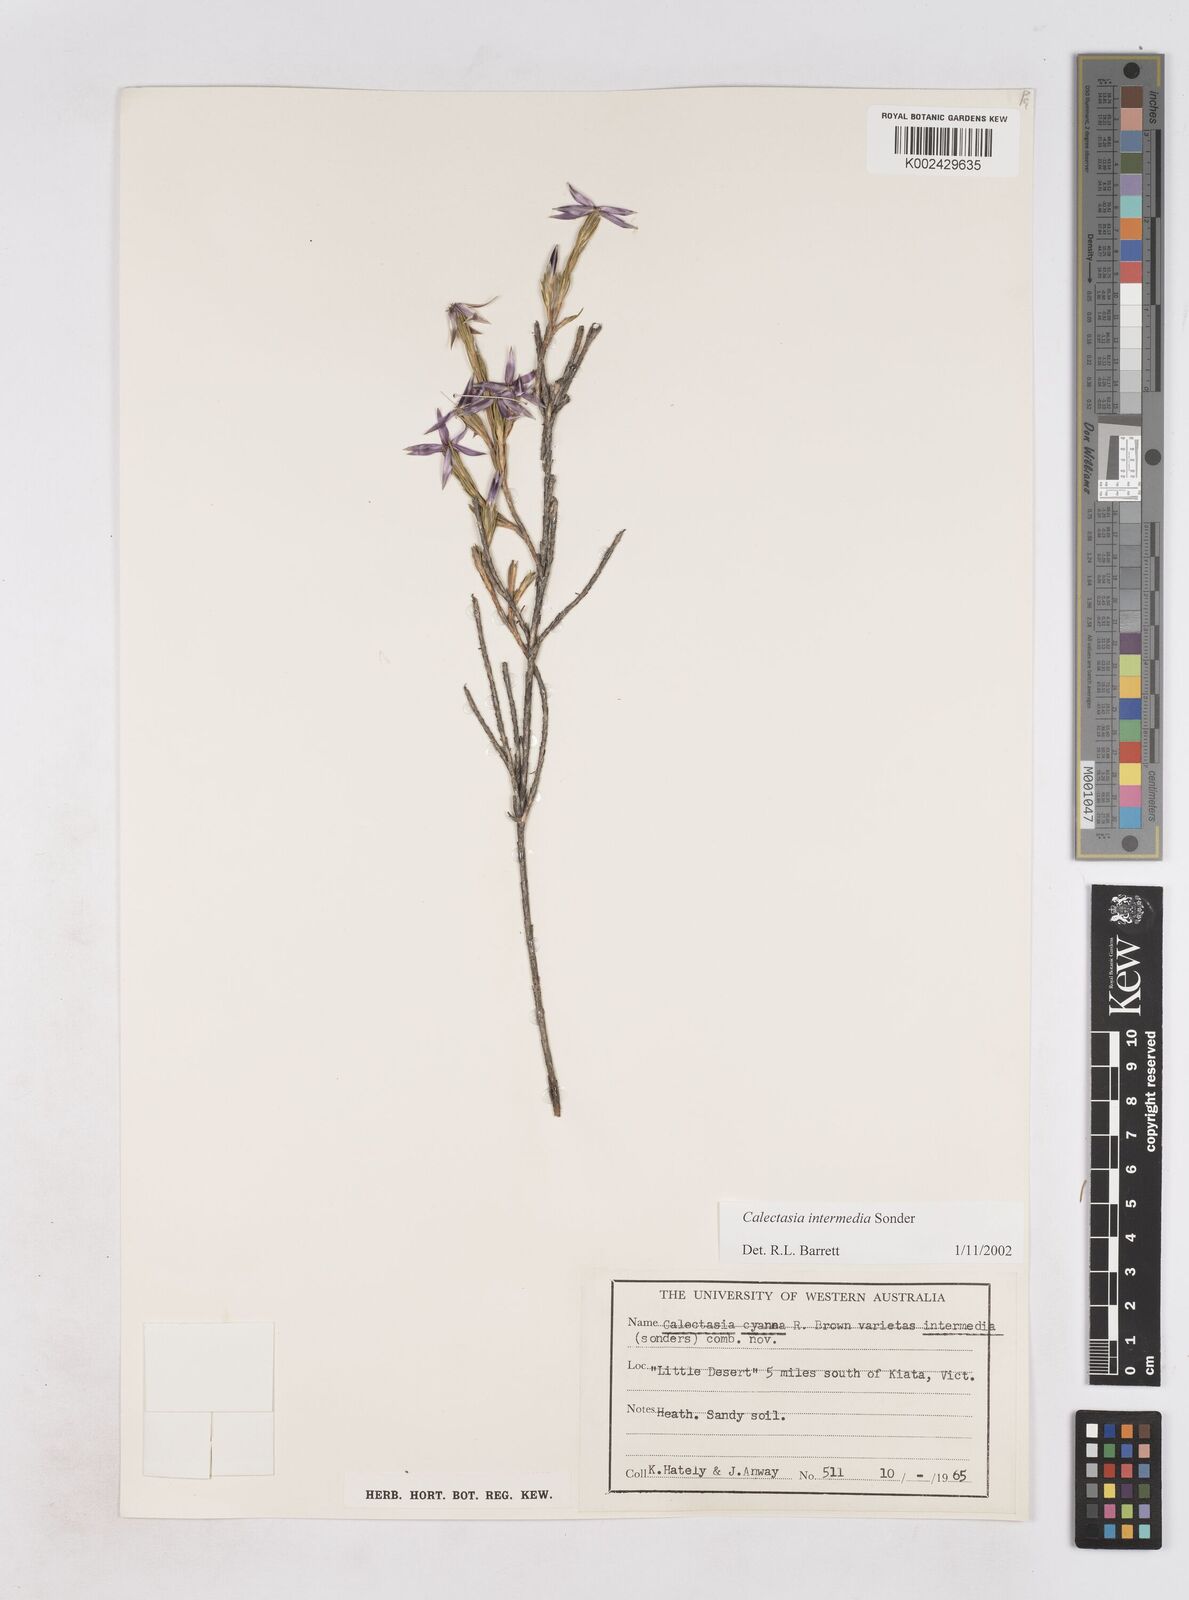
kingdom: Plantae
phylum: Tracheophyta
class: Liliopsida
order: Arecales
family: Dasypogonaceae
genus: Calectasia
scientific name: Calectasia intermedia
